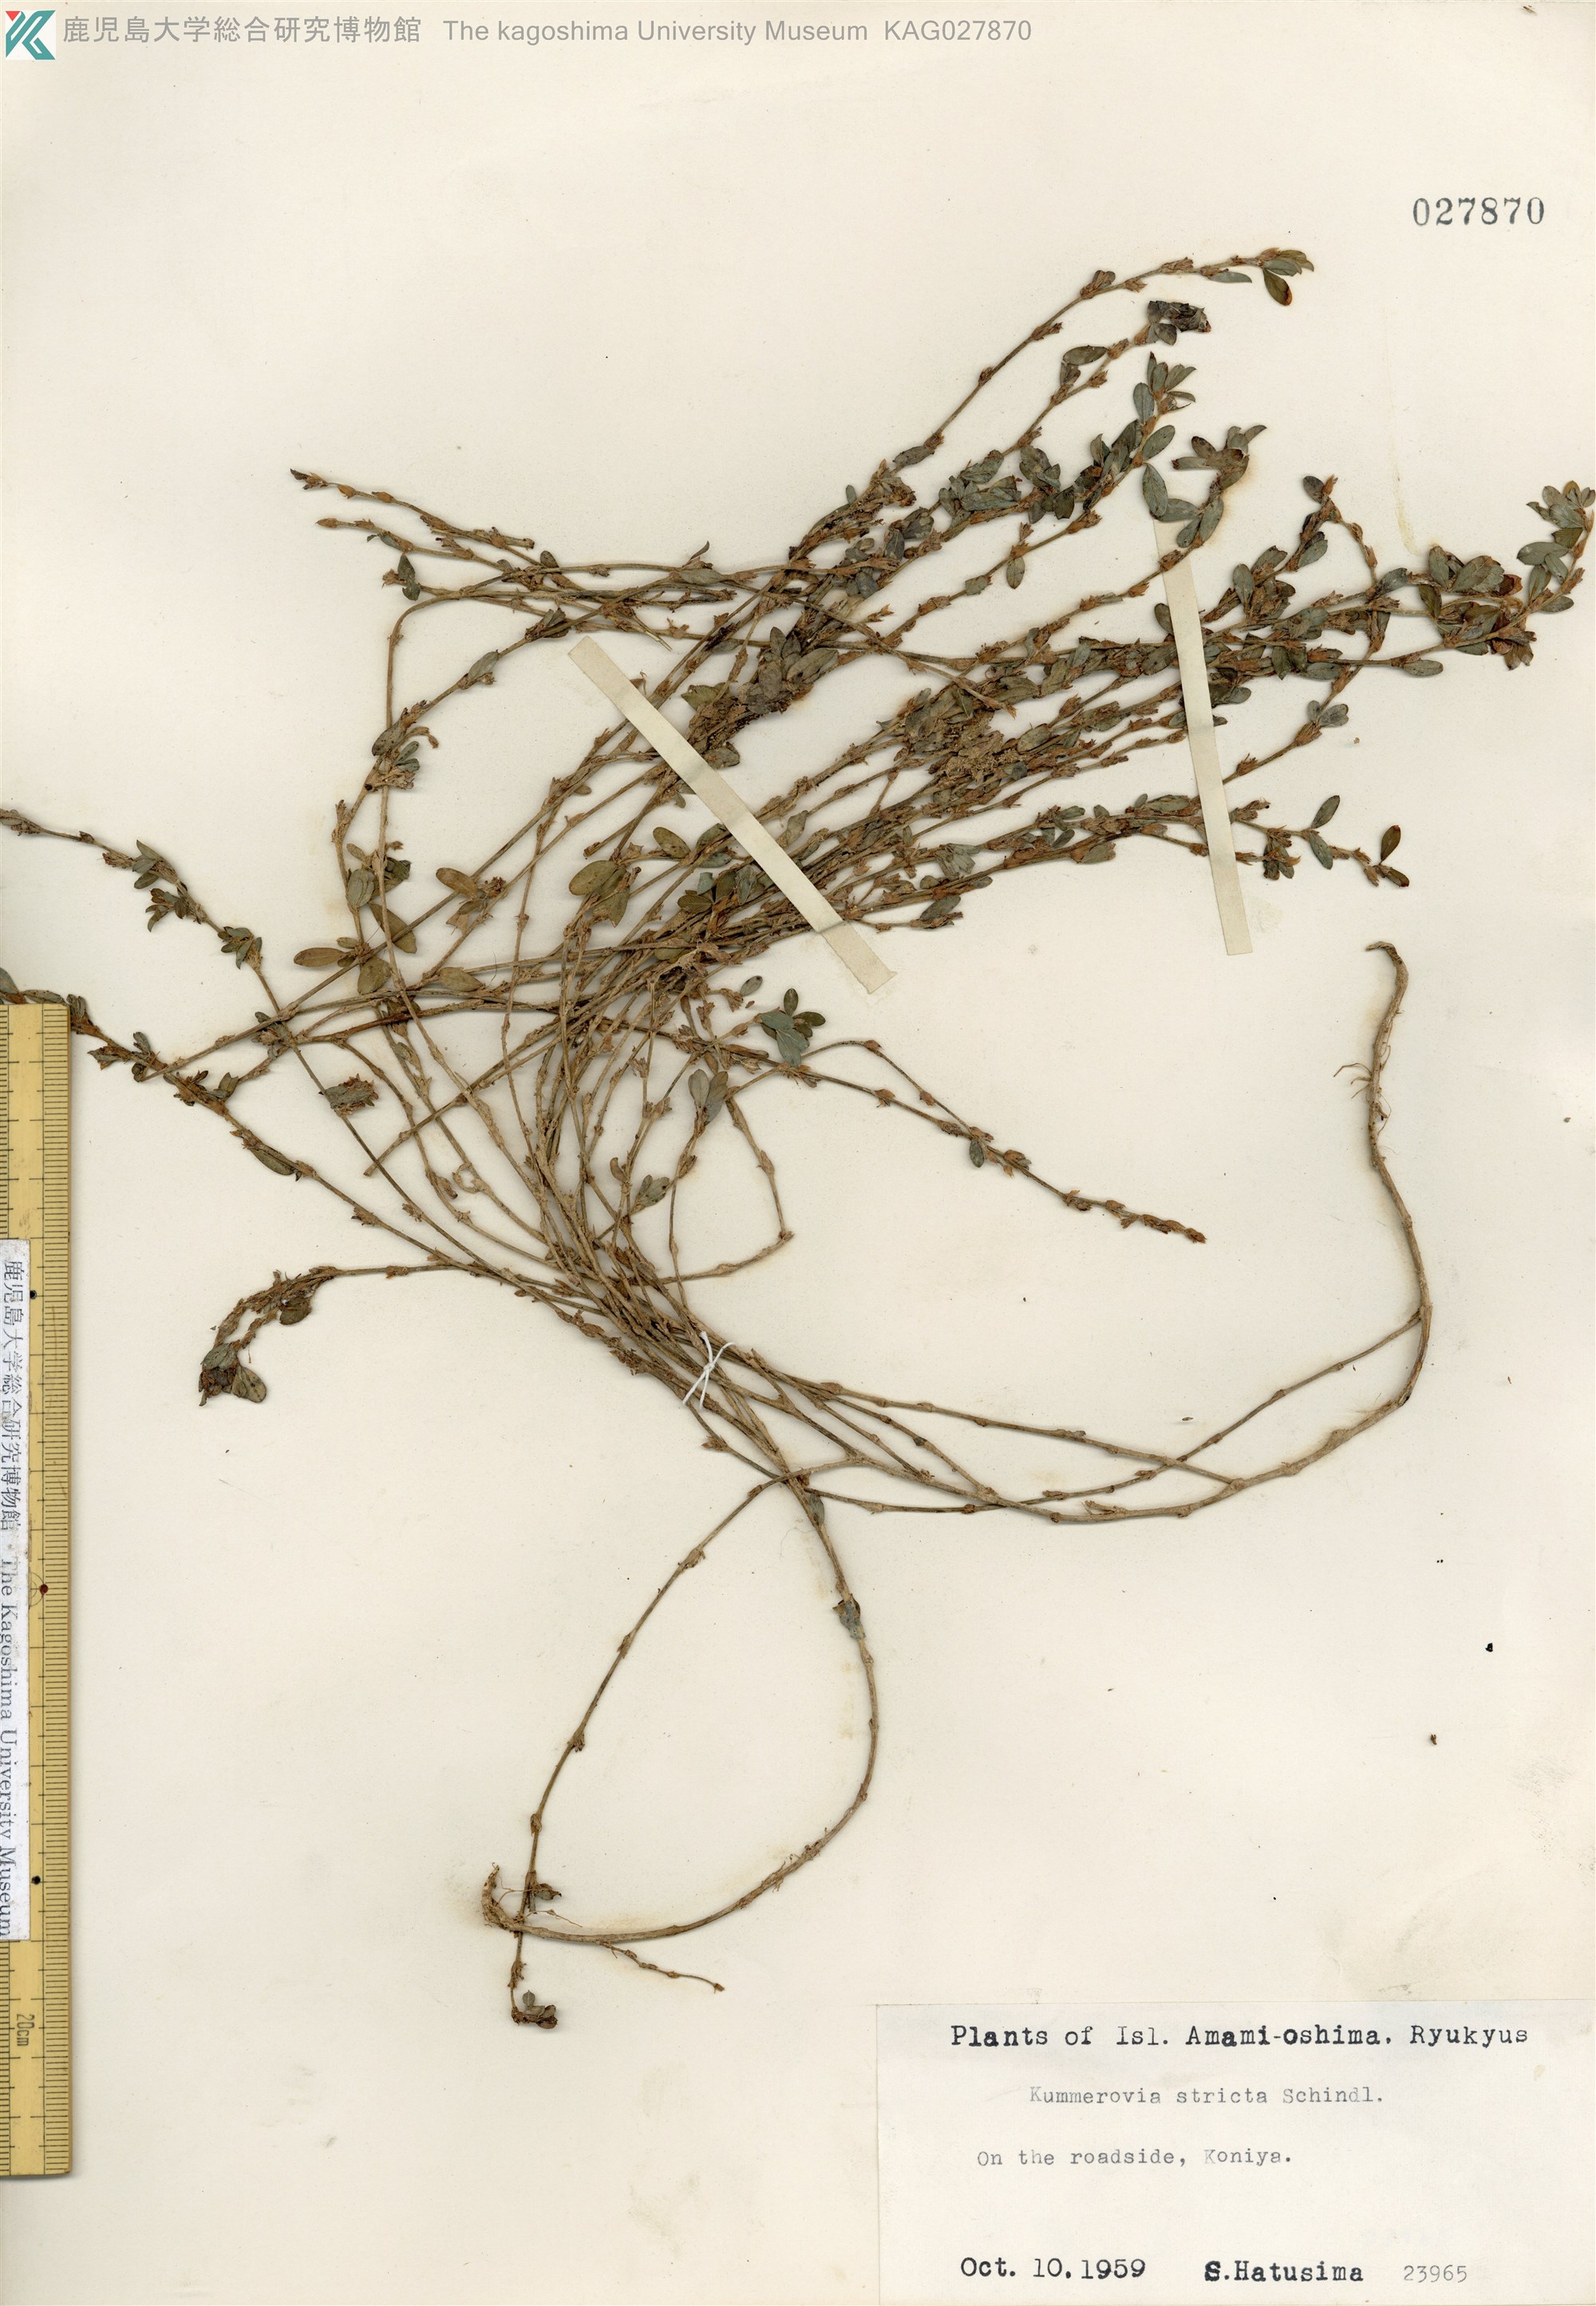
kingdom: Plantae
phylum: Tracheophyta
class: Magnoliopsida
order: Fabales
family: Fabaceae
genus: Kummerowia
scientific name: Kummerowia striata
